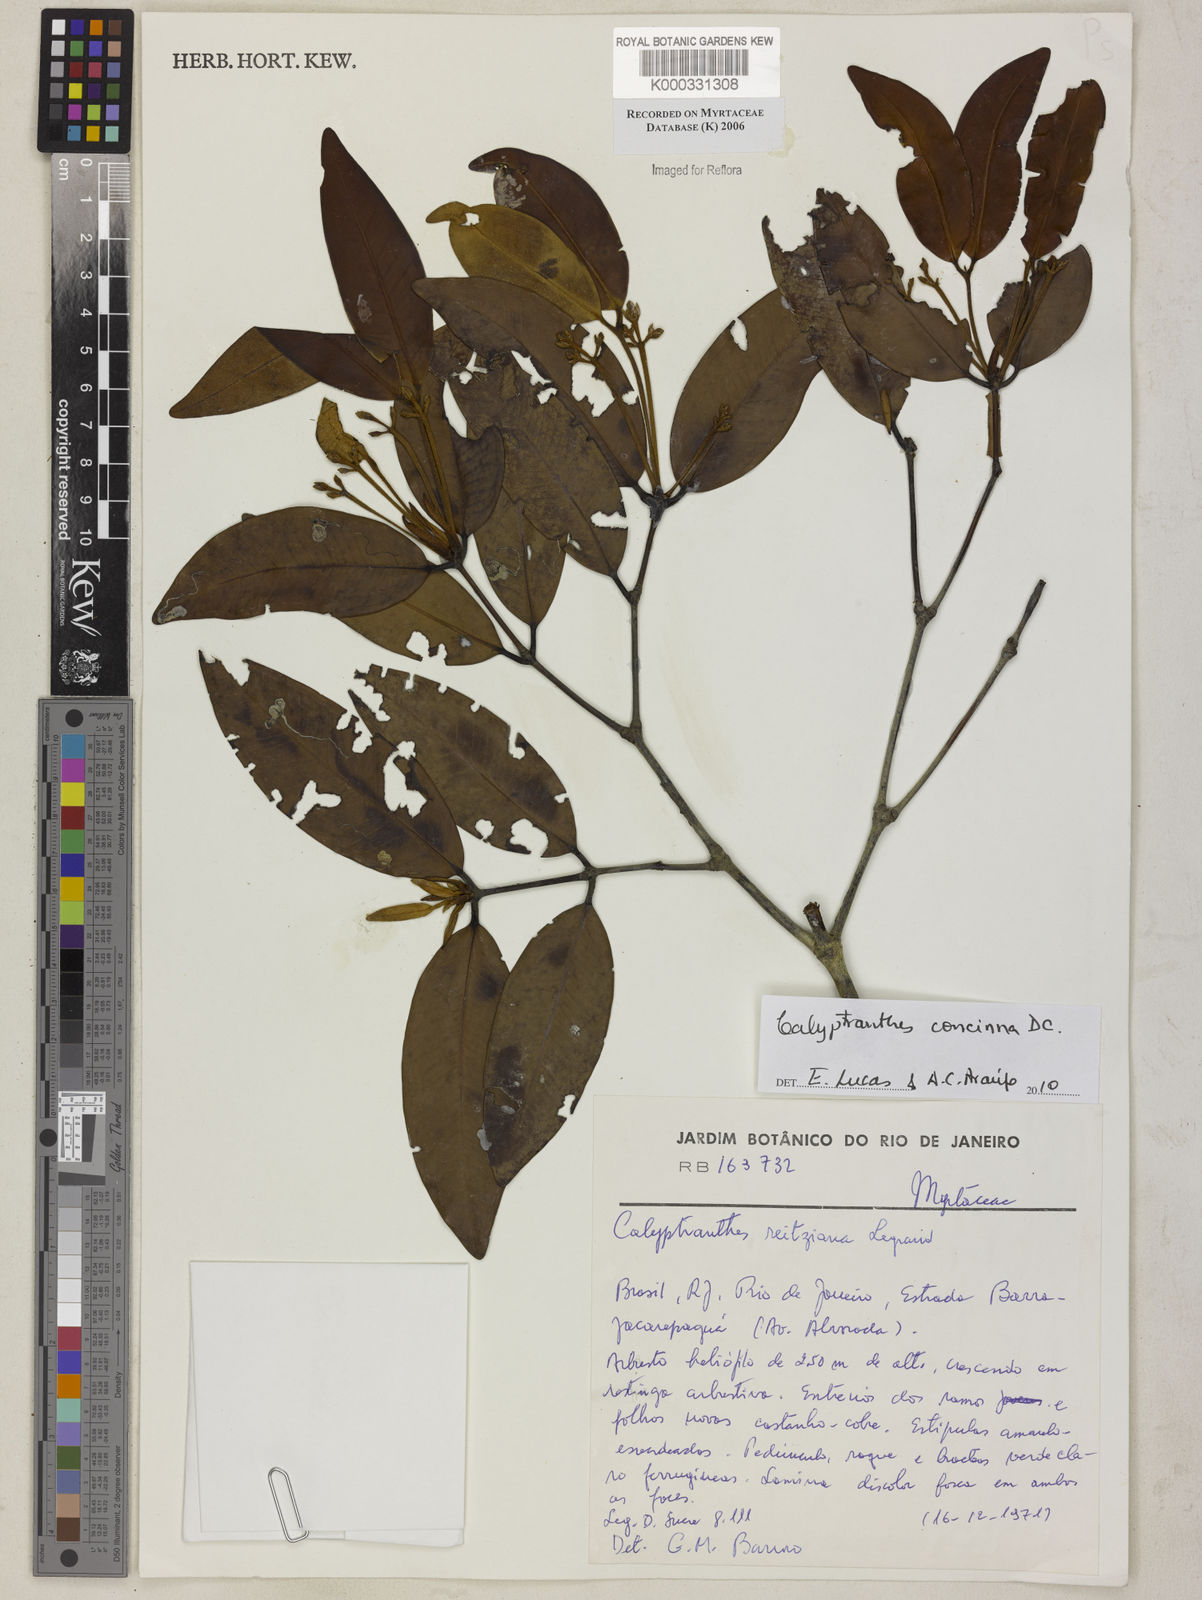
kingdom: Plantae
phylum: Tracheophyta
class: Magnoliopsida
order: Myrtales
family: Myrtaceae
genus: Calyptranthes
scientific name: Calyptranthes reitziana
